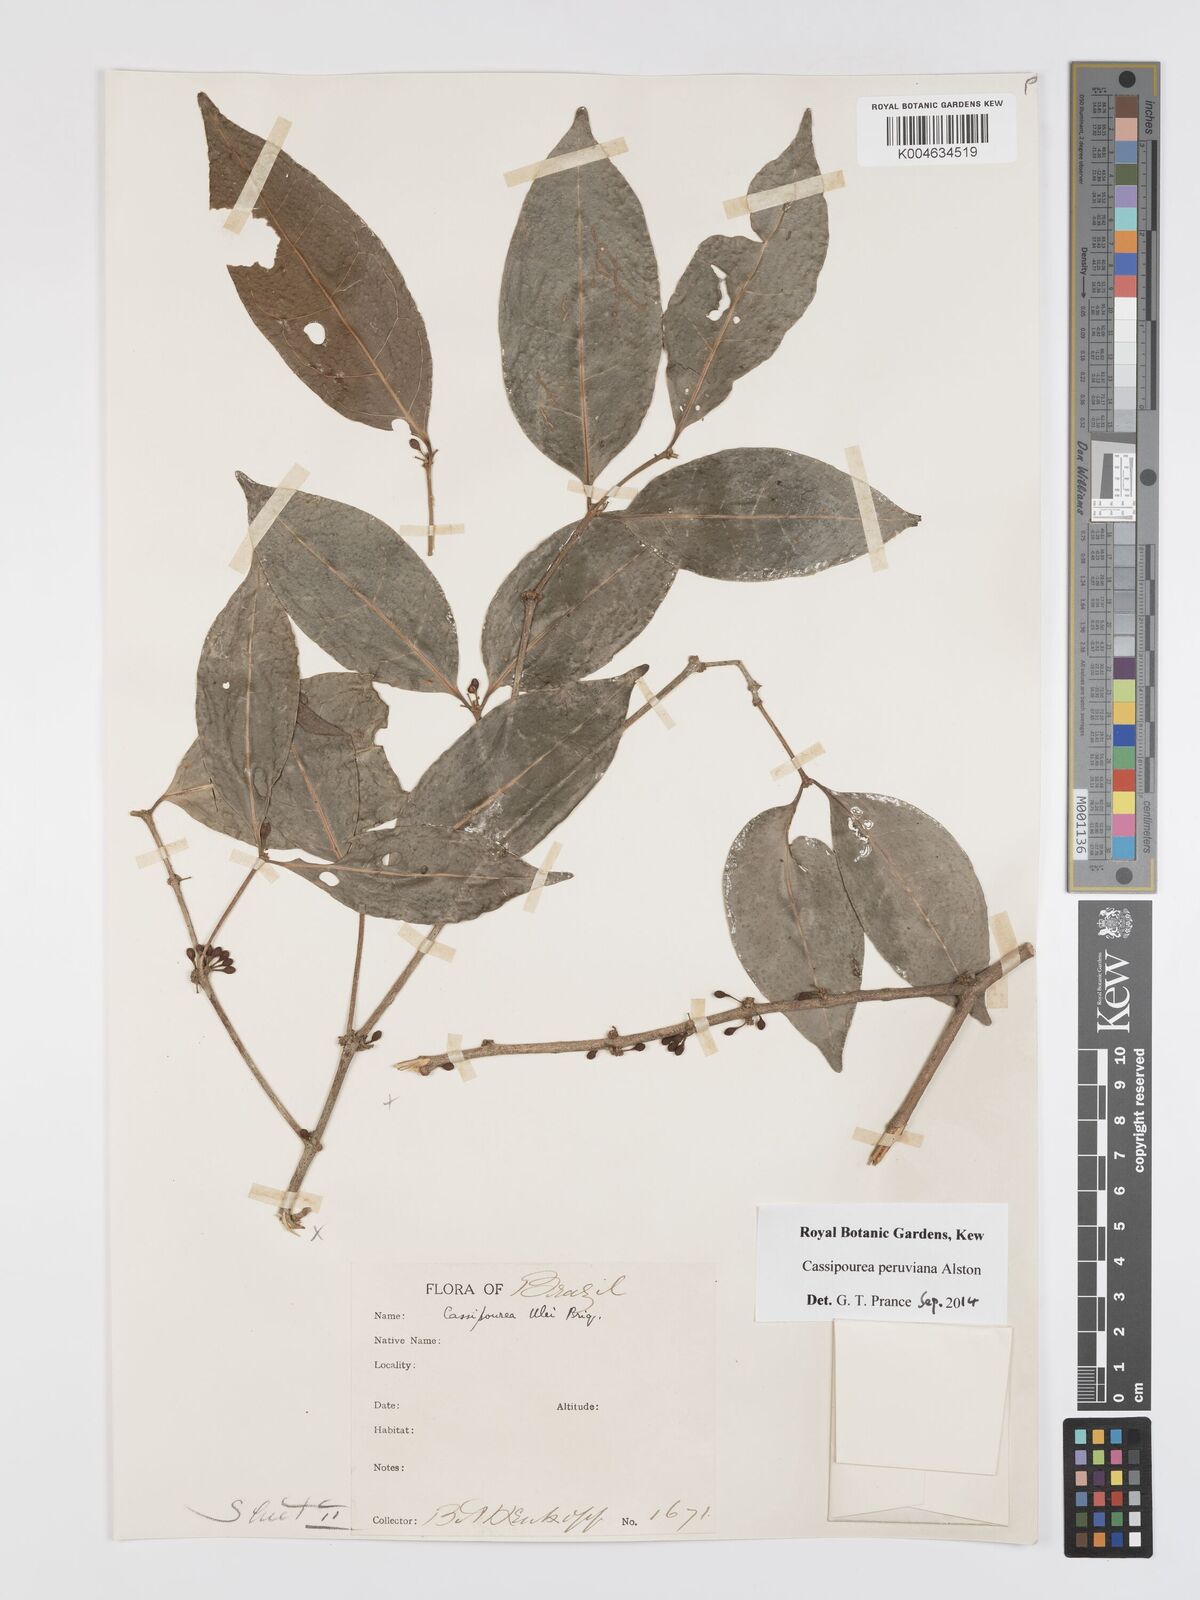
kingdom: Plantae
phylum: Tracheophyta
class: Magnoliopsida
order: Malpighiales
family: Rhizophoraceae
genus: Cassipourea
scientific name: Cassipourea peruviana
